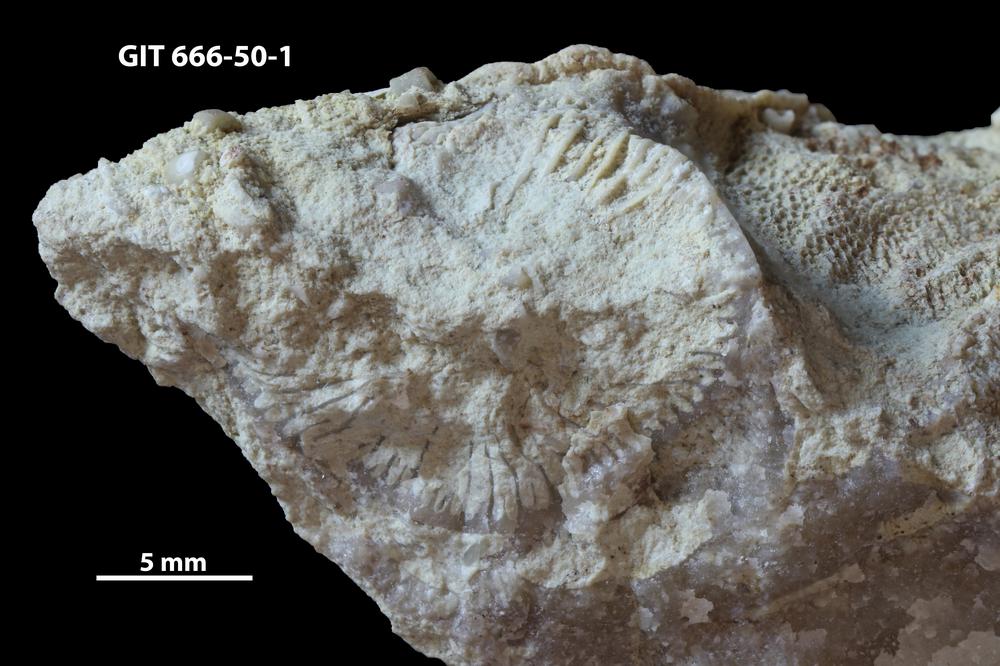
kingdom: Animalia
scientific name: Animalia
